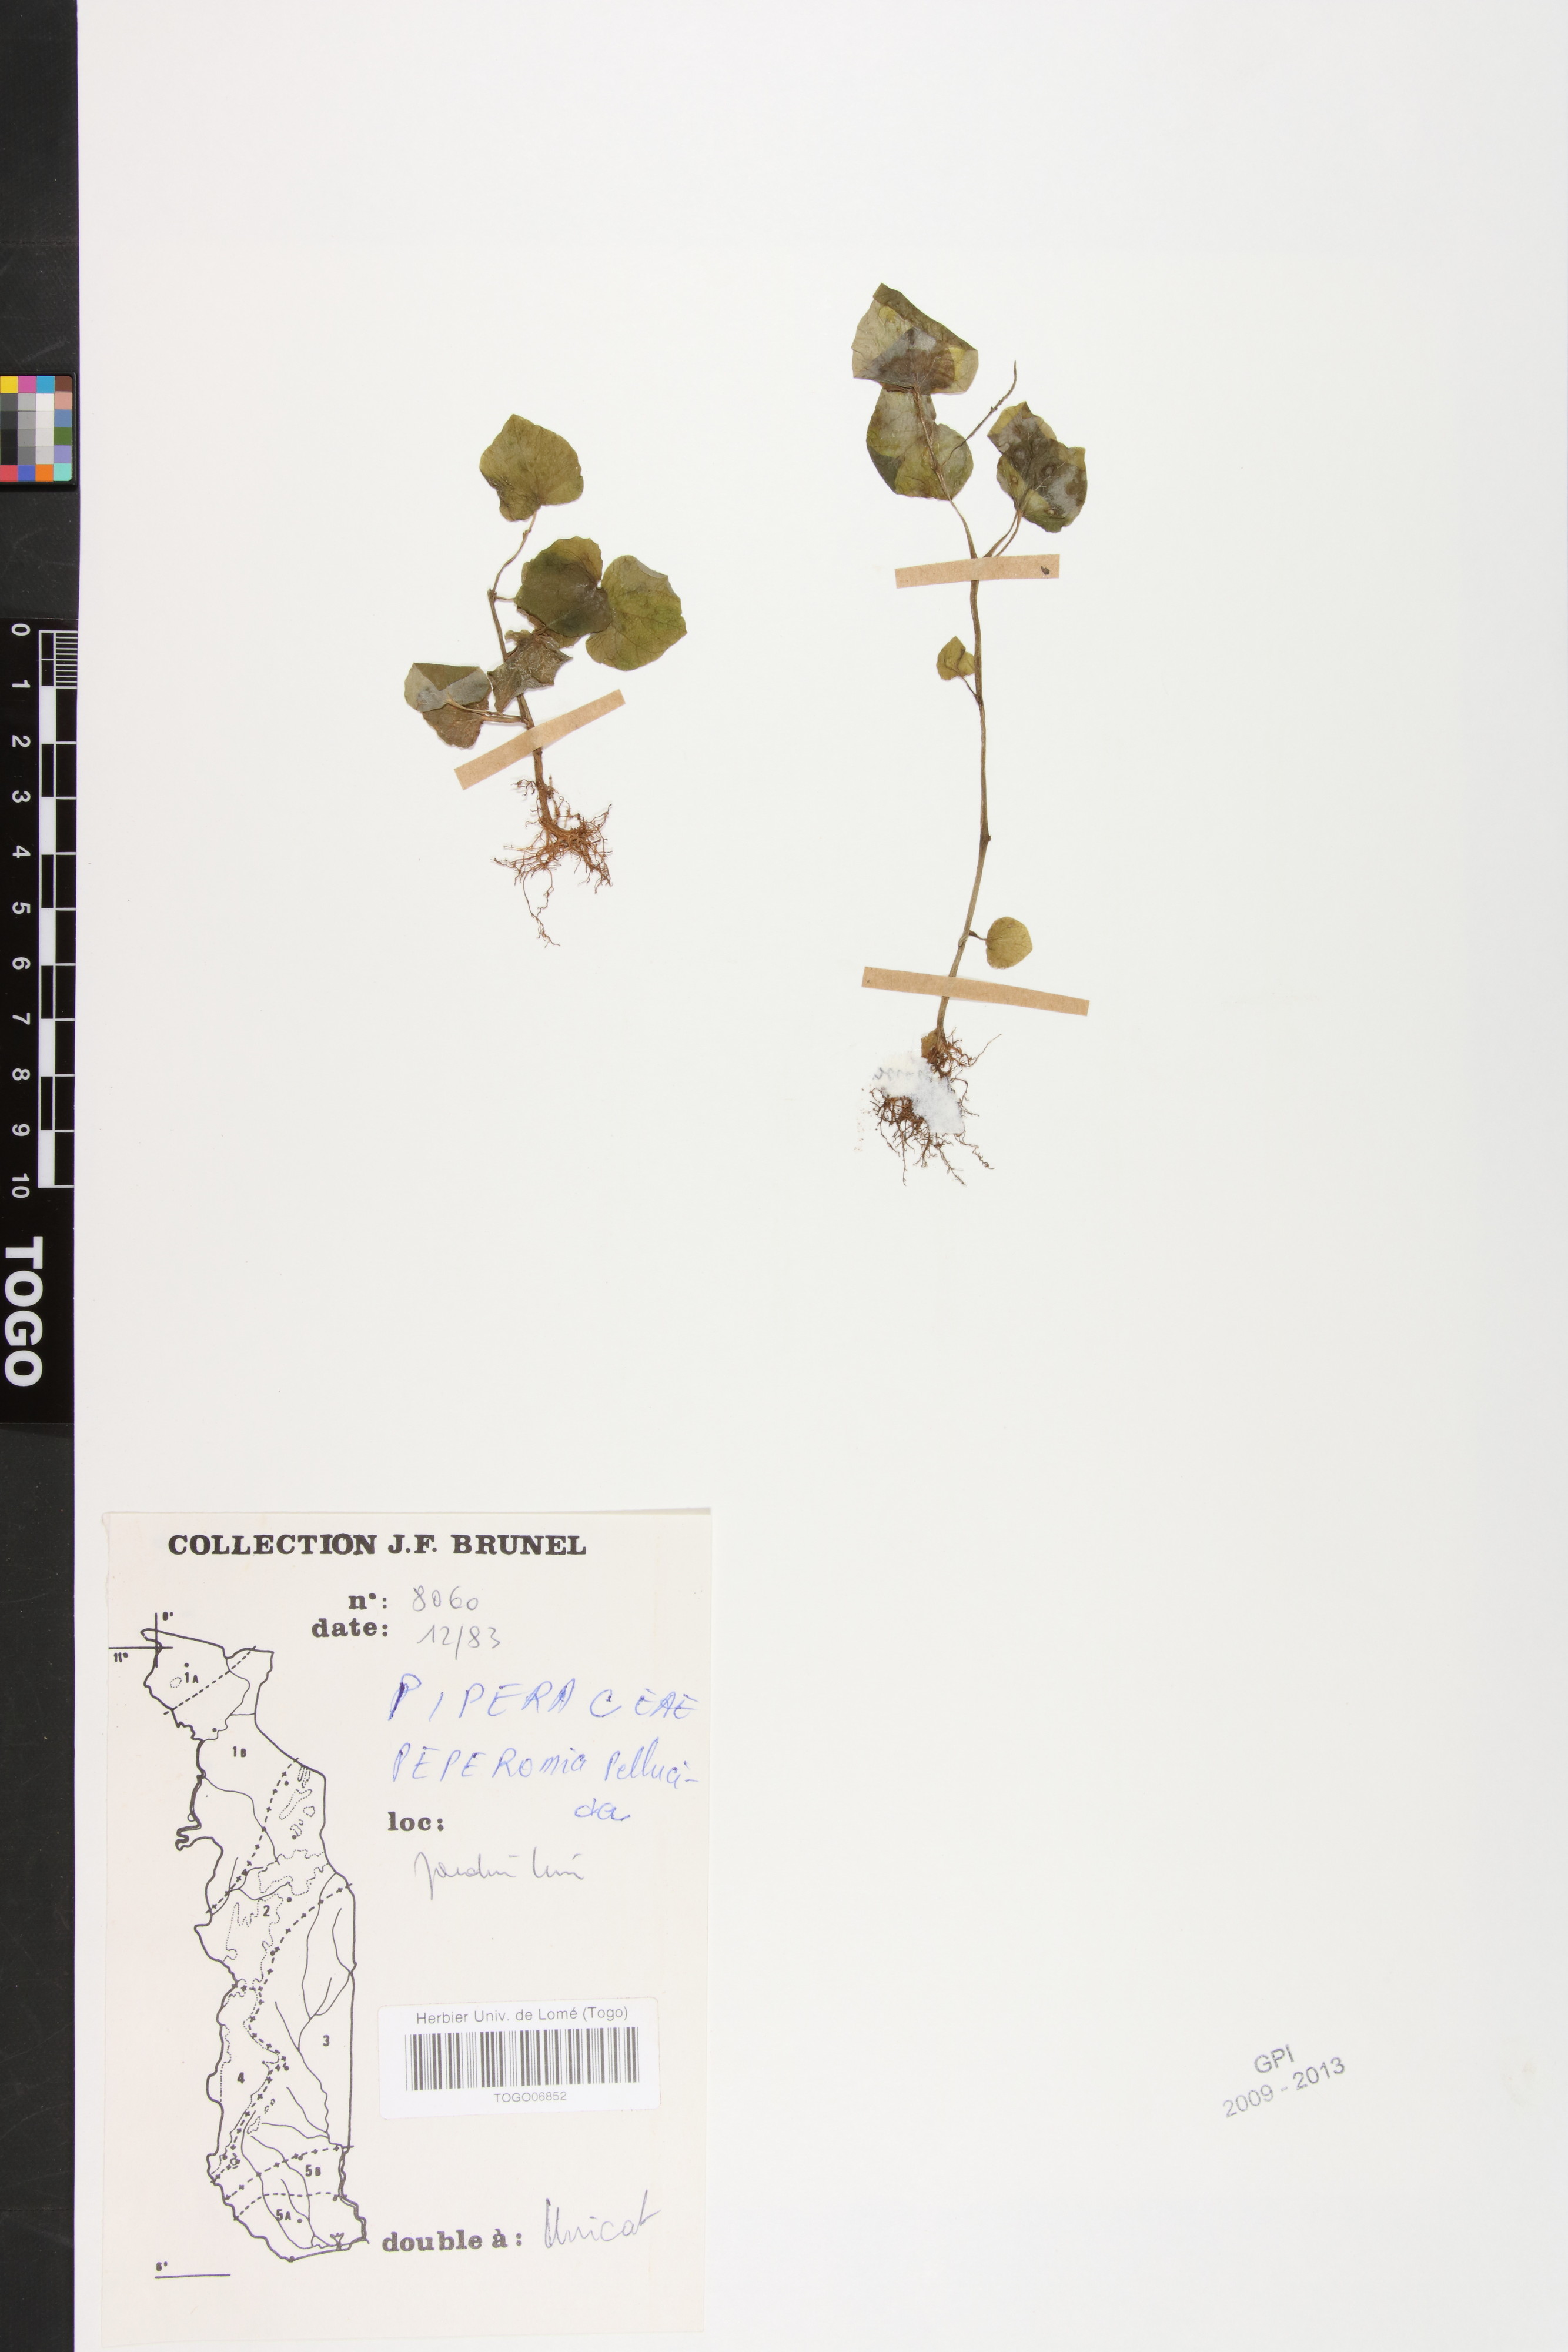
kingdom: Plantae
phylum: Tracheophyta
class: Magnoliopsida
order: Piperales
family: Piperaceae
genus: Peperomia
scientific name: Peperomia pellucida
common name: Man to man
